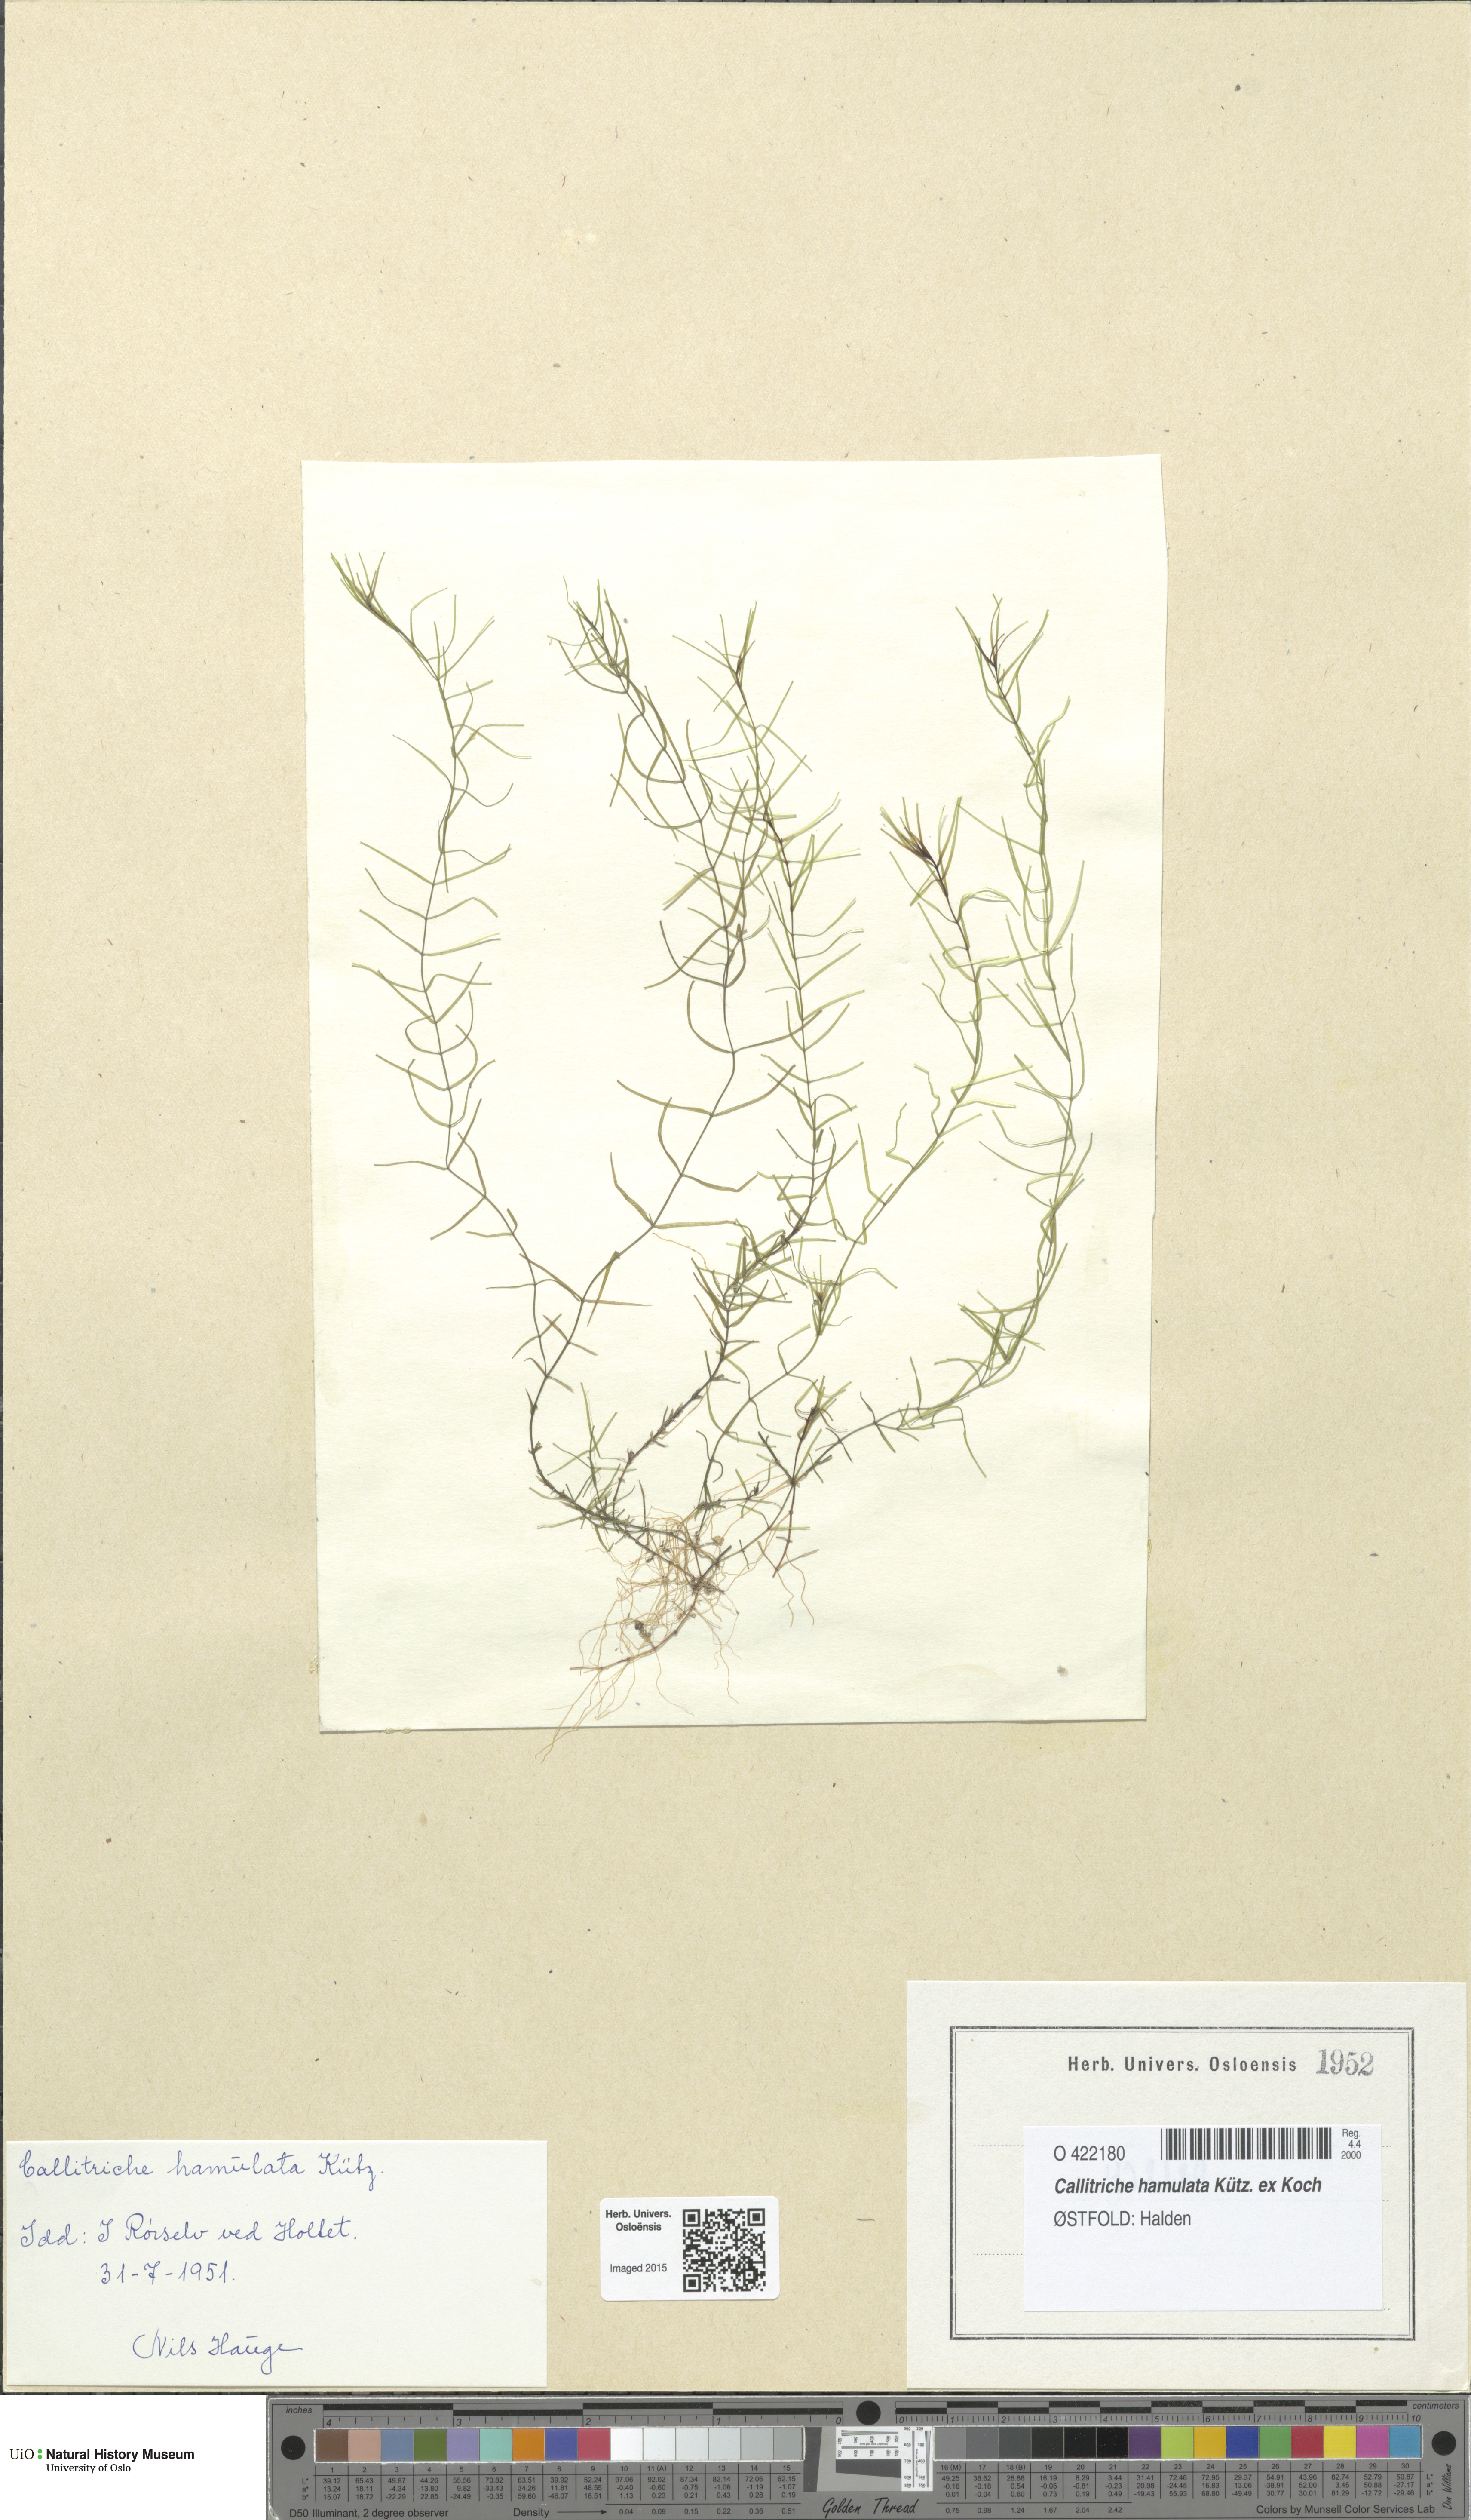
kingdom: Plantae
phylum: Tracheophyta
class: Magnoliopsida
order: Lamiales
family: Plantaginaceae
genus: Callitriche
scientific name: Callitriche hamulata
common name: Intermediate water-starwort
